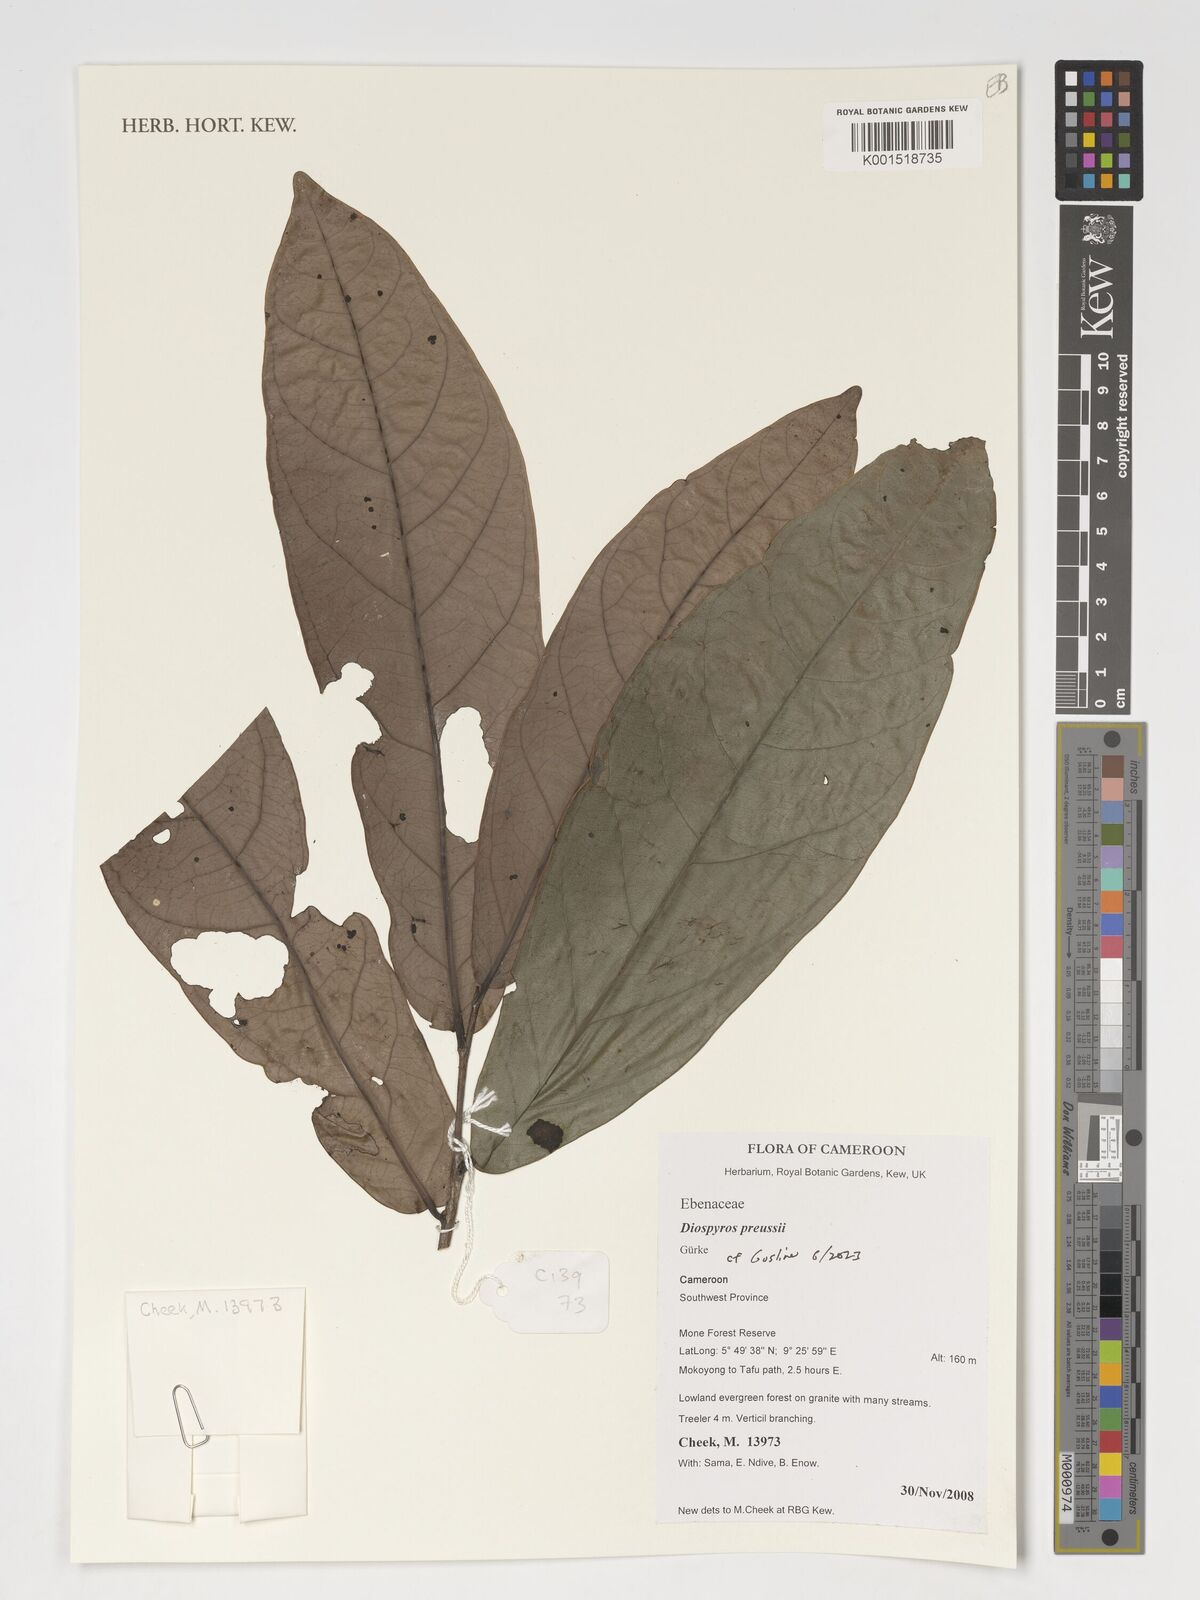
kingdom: Plantae
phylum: Tracheophyta
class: Magnoliopsida
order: Ericales
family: Ebenaceae
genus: Diospyros
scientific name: Diospyros preussii
